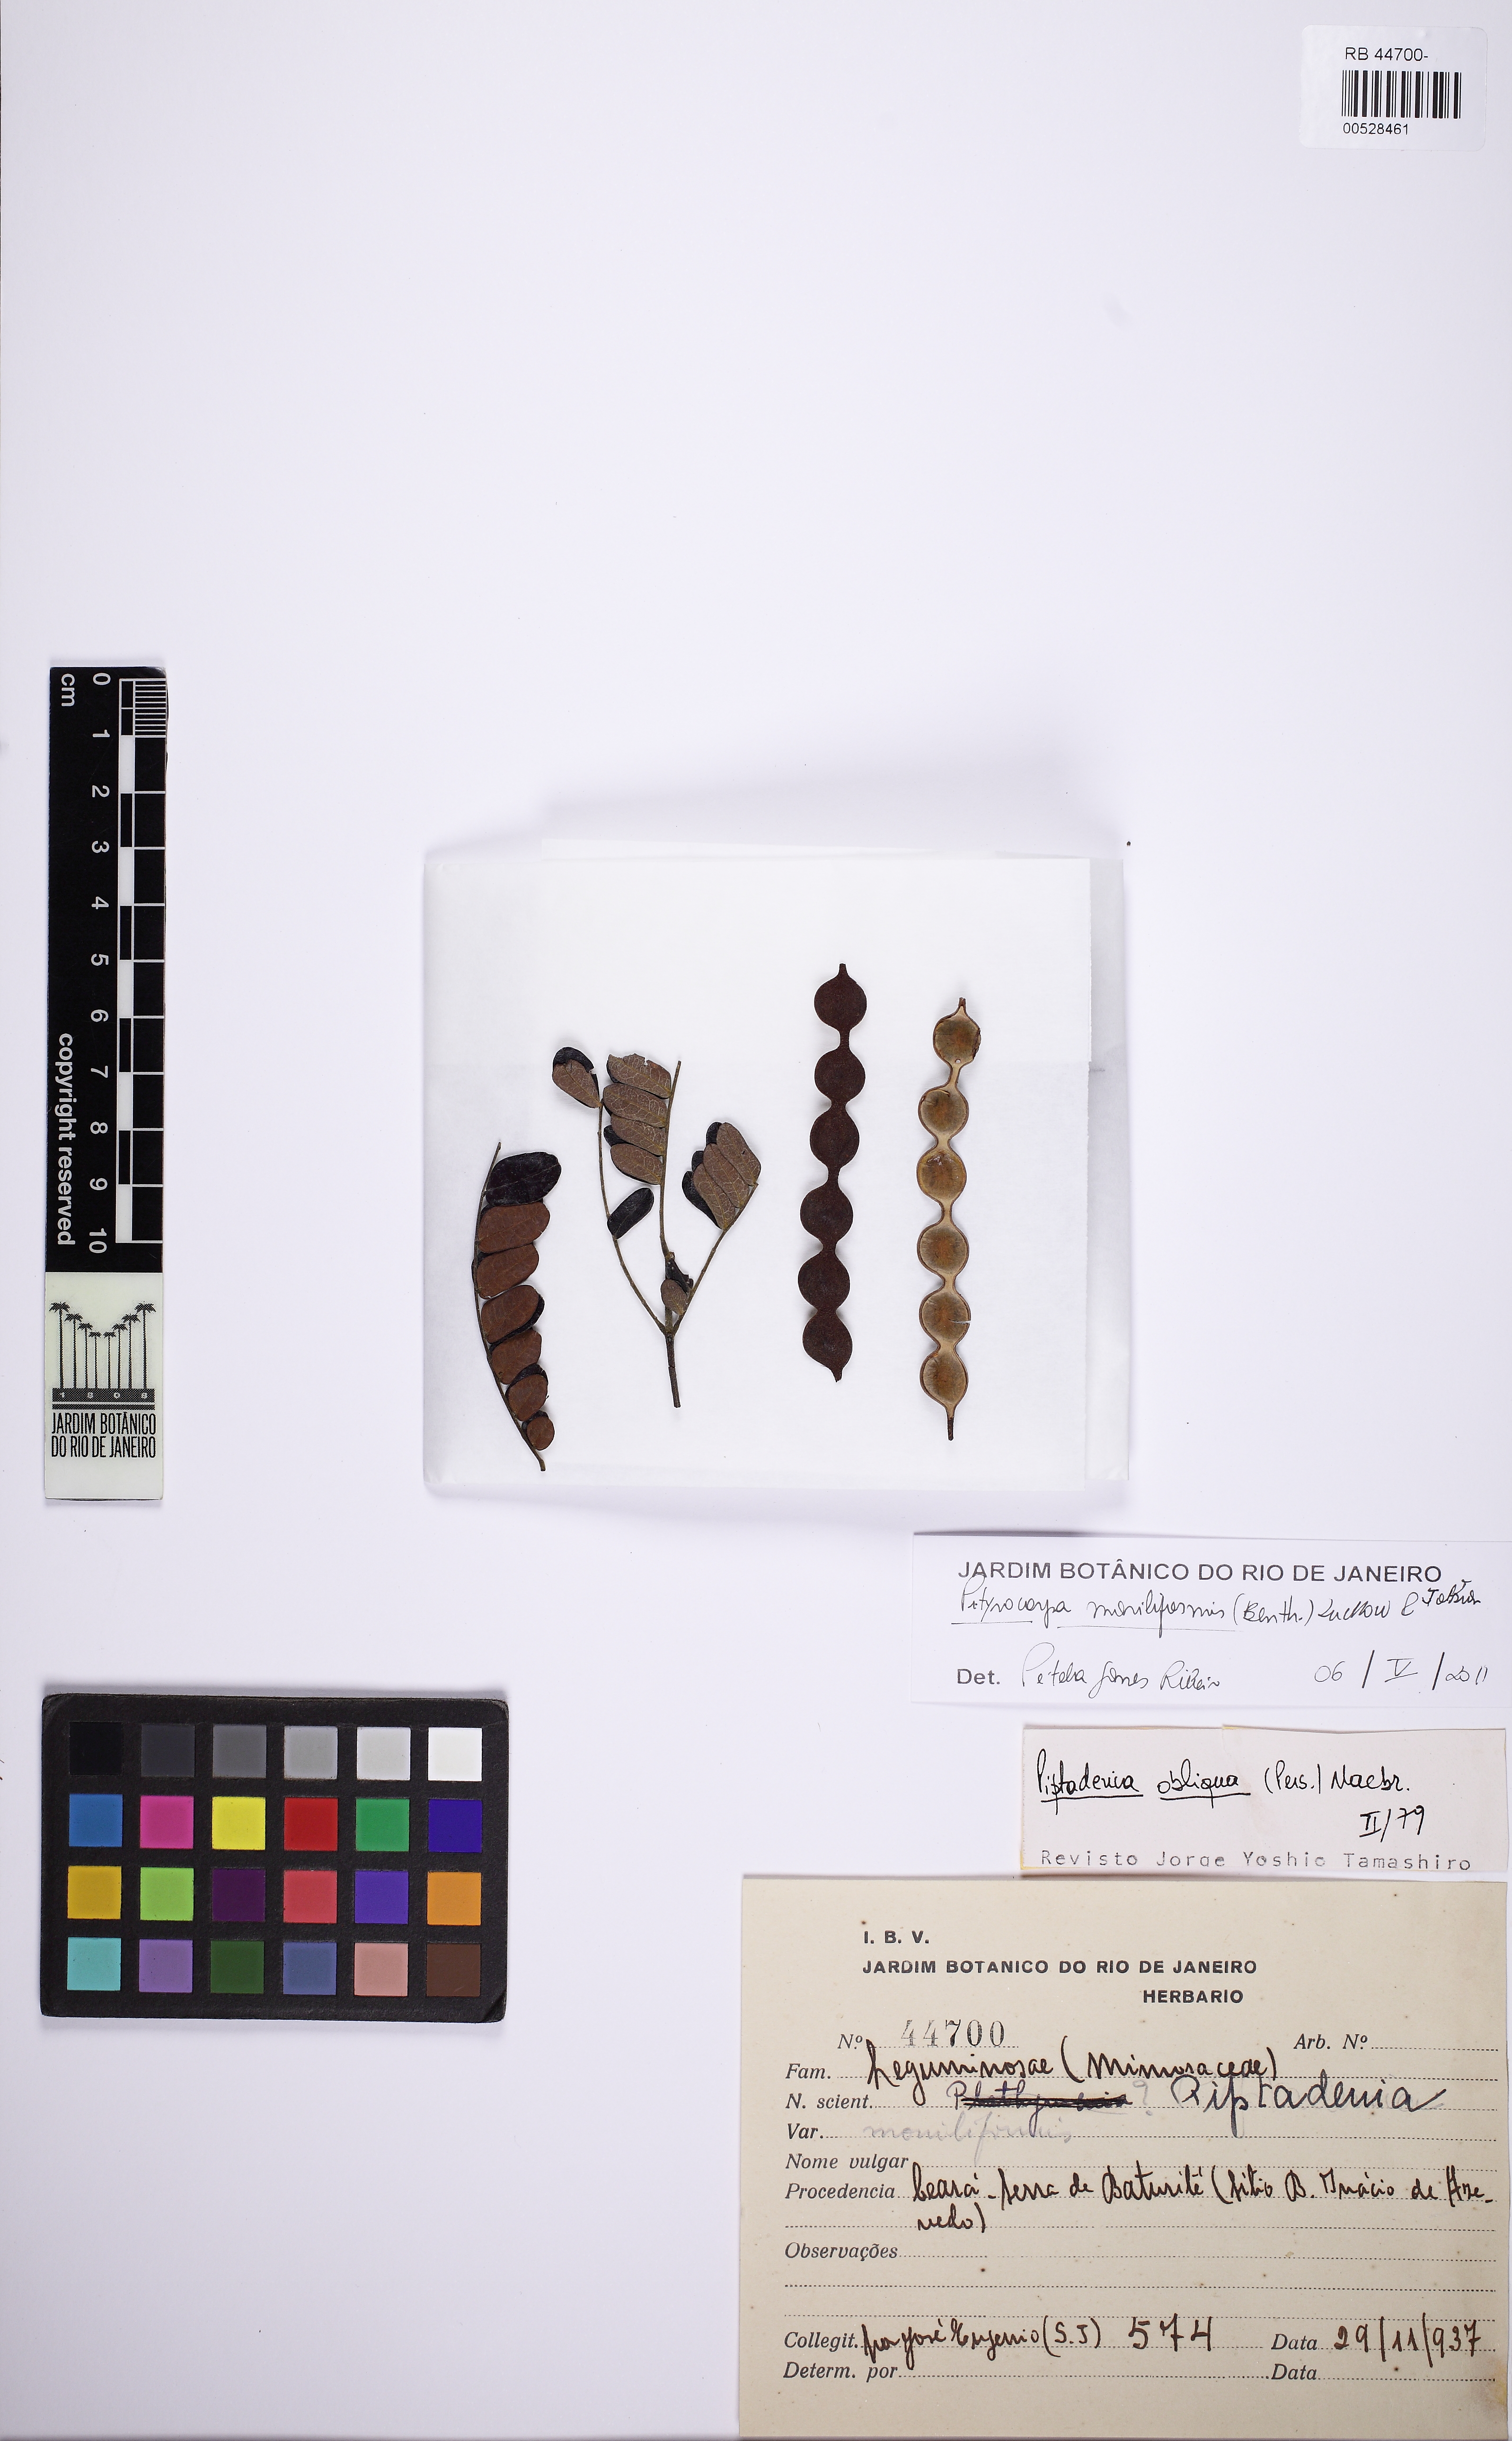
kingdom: Plantae
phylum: Tracheophyta
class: Magnoliopsida
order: Fabales
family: Fabaceae
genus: Pityrocarpa
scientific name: Pityrocarpa moniliformis
